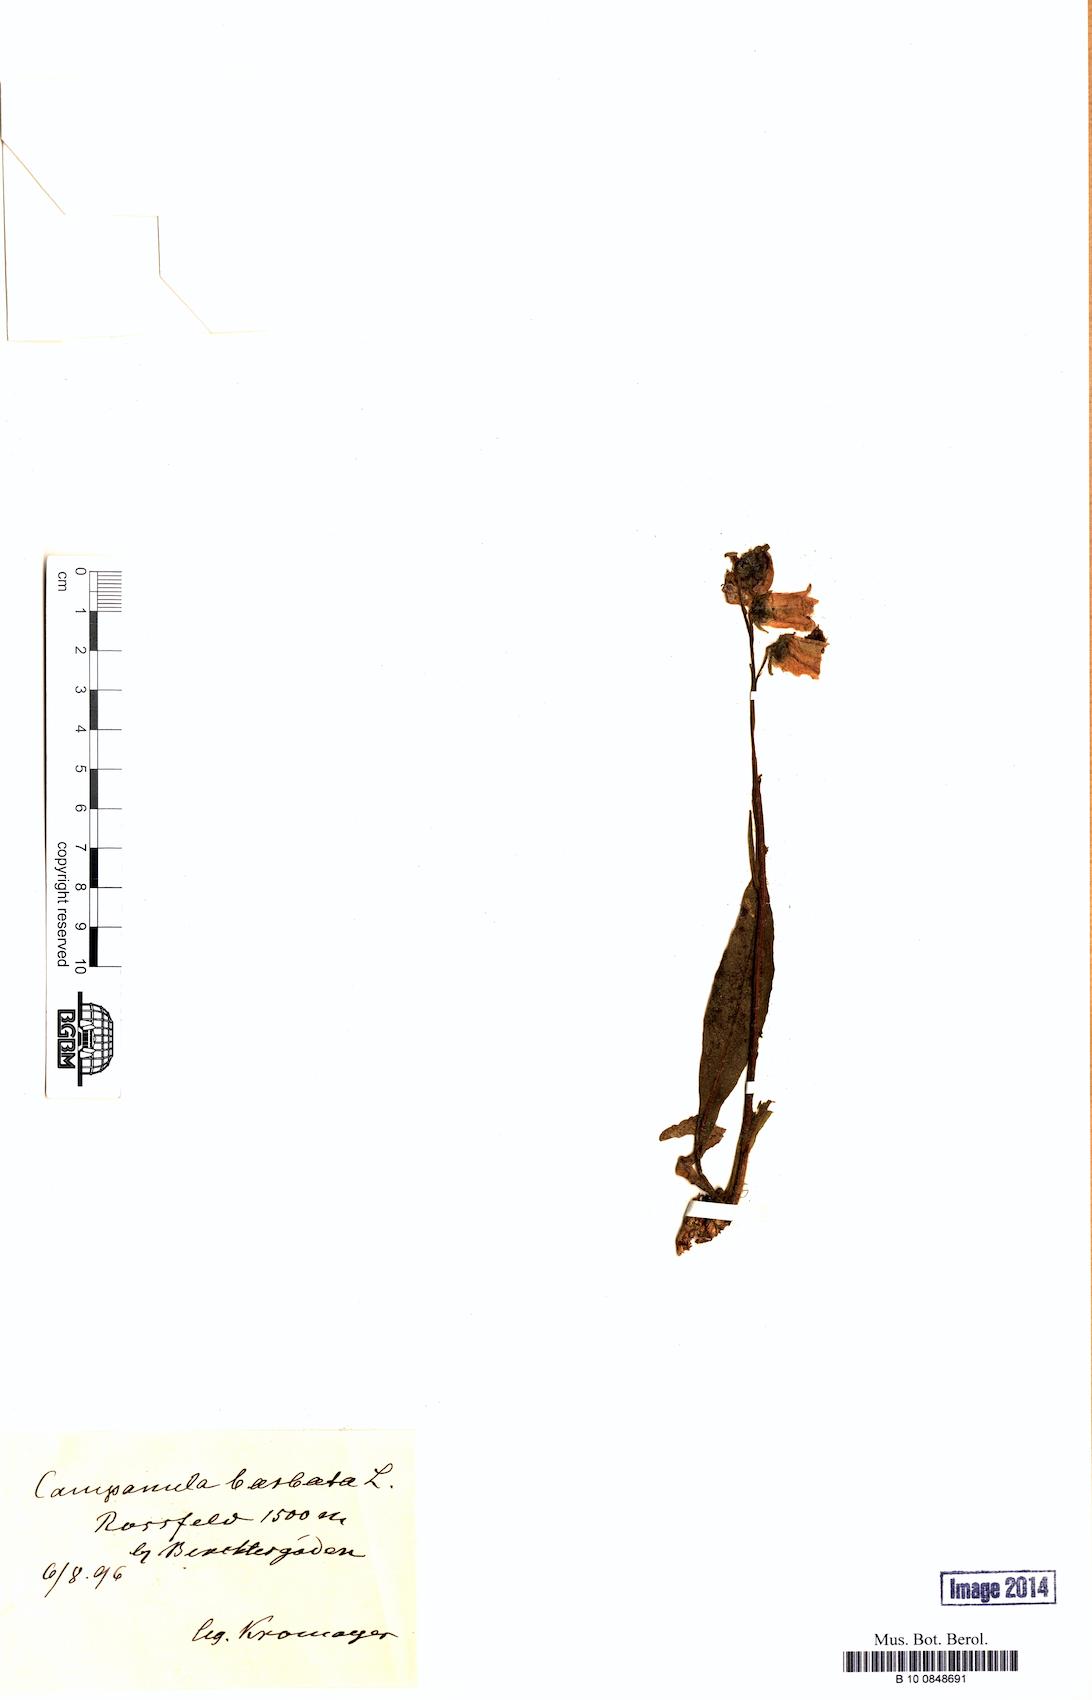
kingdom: Plantae
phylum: Tracheophyta
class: Magnoliopsida
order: Asterales
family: Campanulaceae
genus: Campanula
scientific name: Campanula barbata
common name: Bearded bellflower
